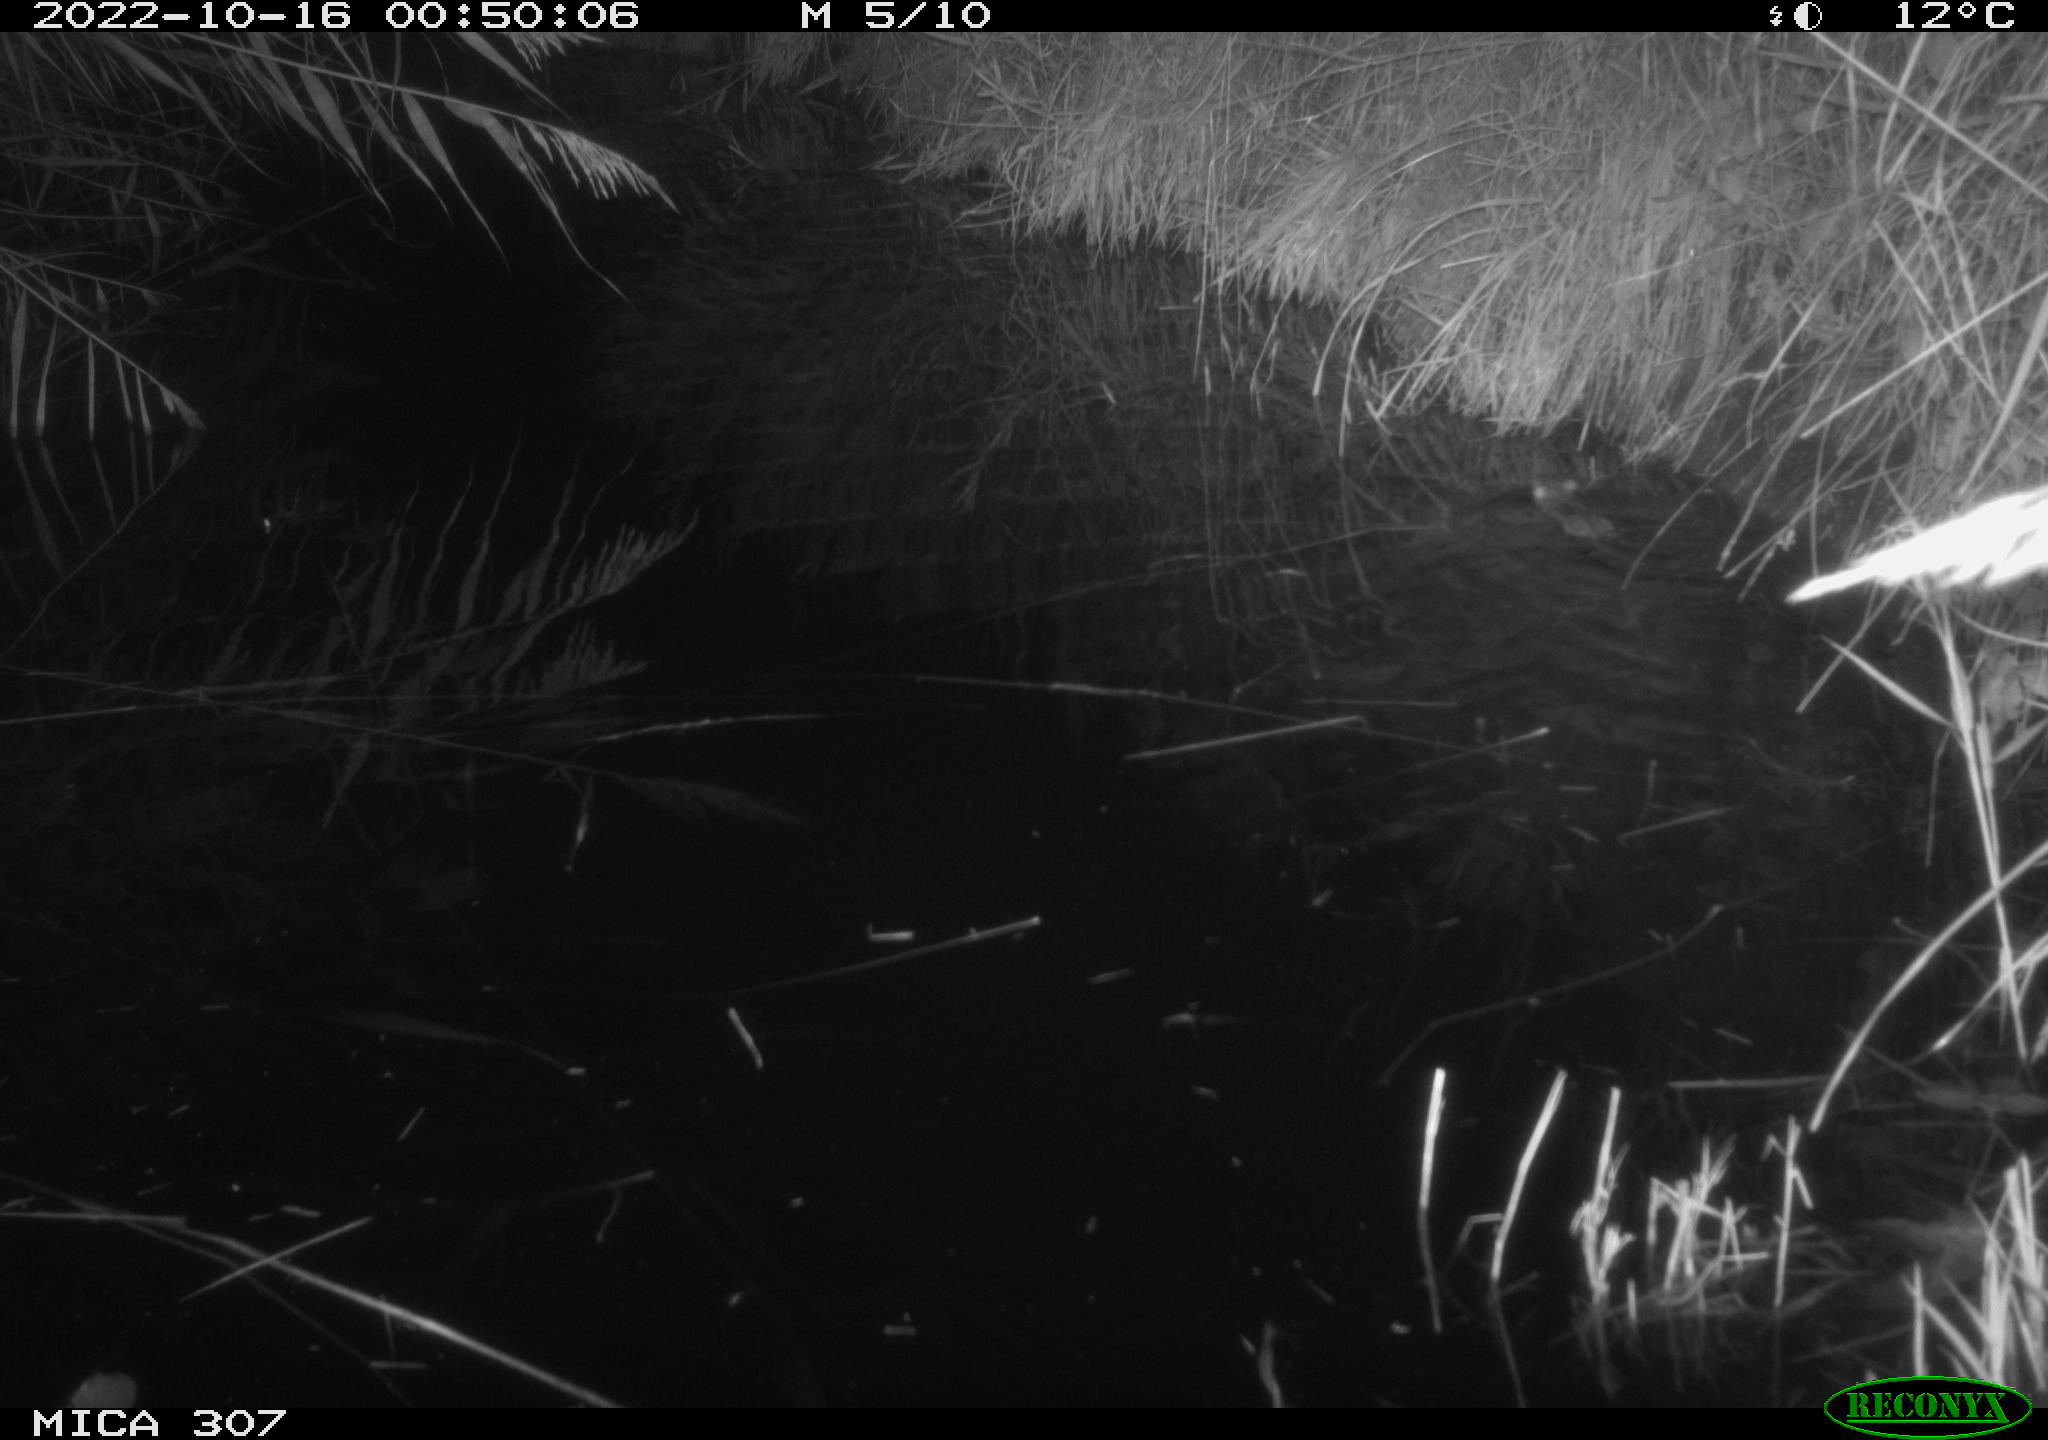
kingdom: Animalia
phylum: Chordata
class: Mammalia
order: Rodentia
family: Muridae
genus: Rattus
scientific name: Rattus norvegicus
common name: Brown rat
